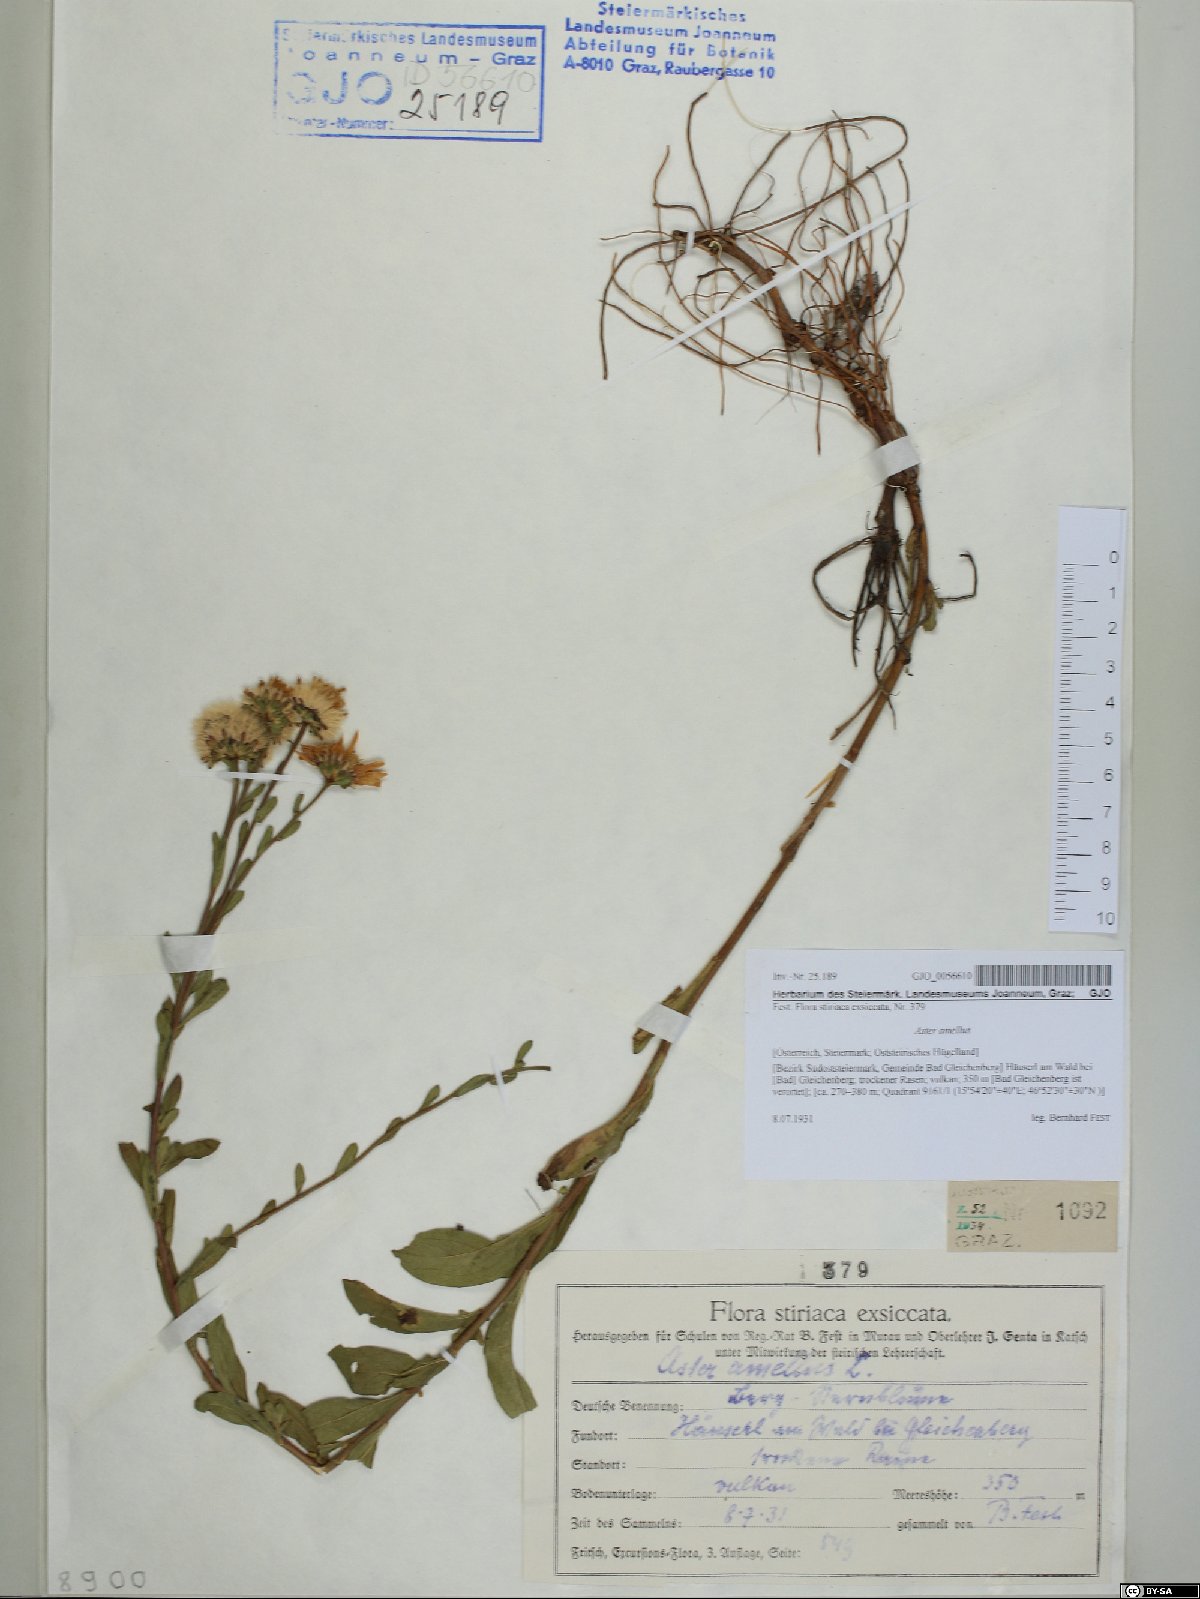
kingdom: Plantae
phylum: Tracheophyta
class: Magnoliopsida
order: Asterales
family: Asteraceae
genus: Aster
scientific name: Aster amellus
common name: European michaelmas daisy
